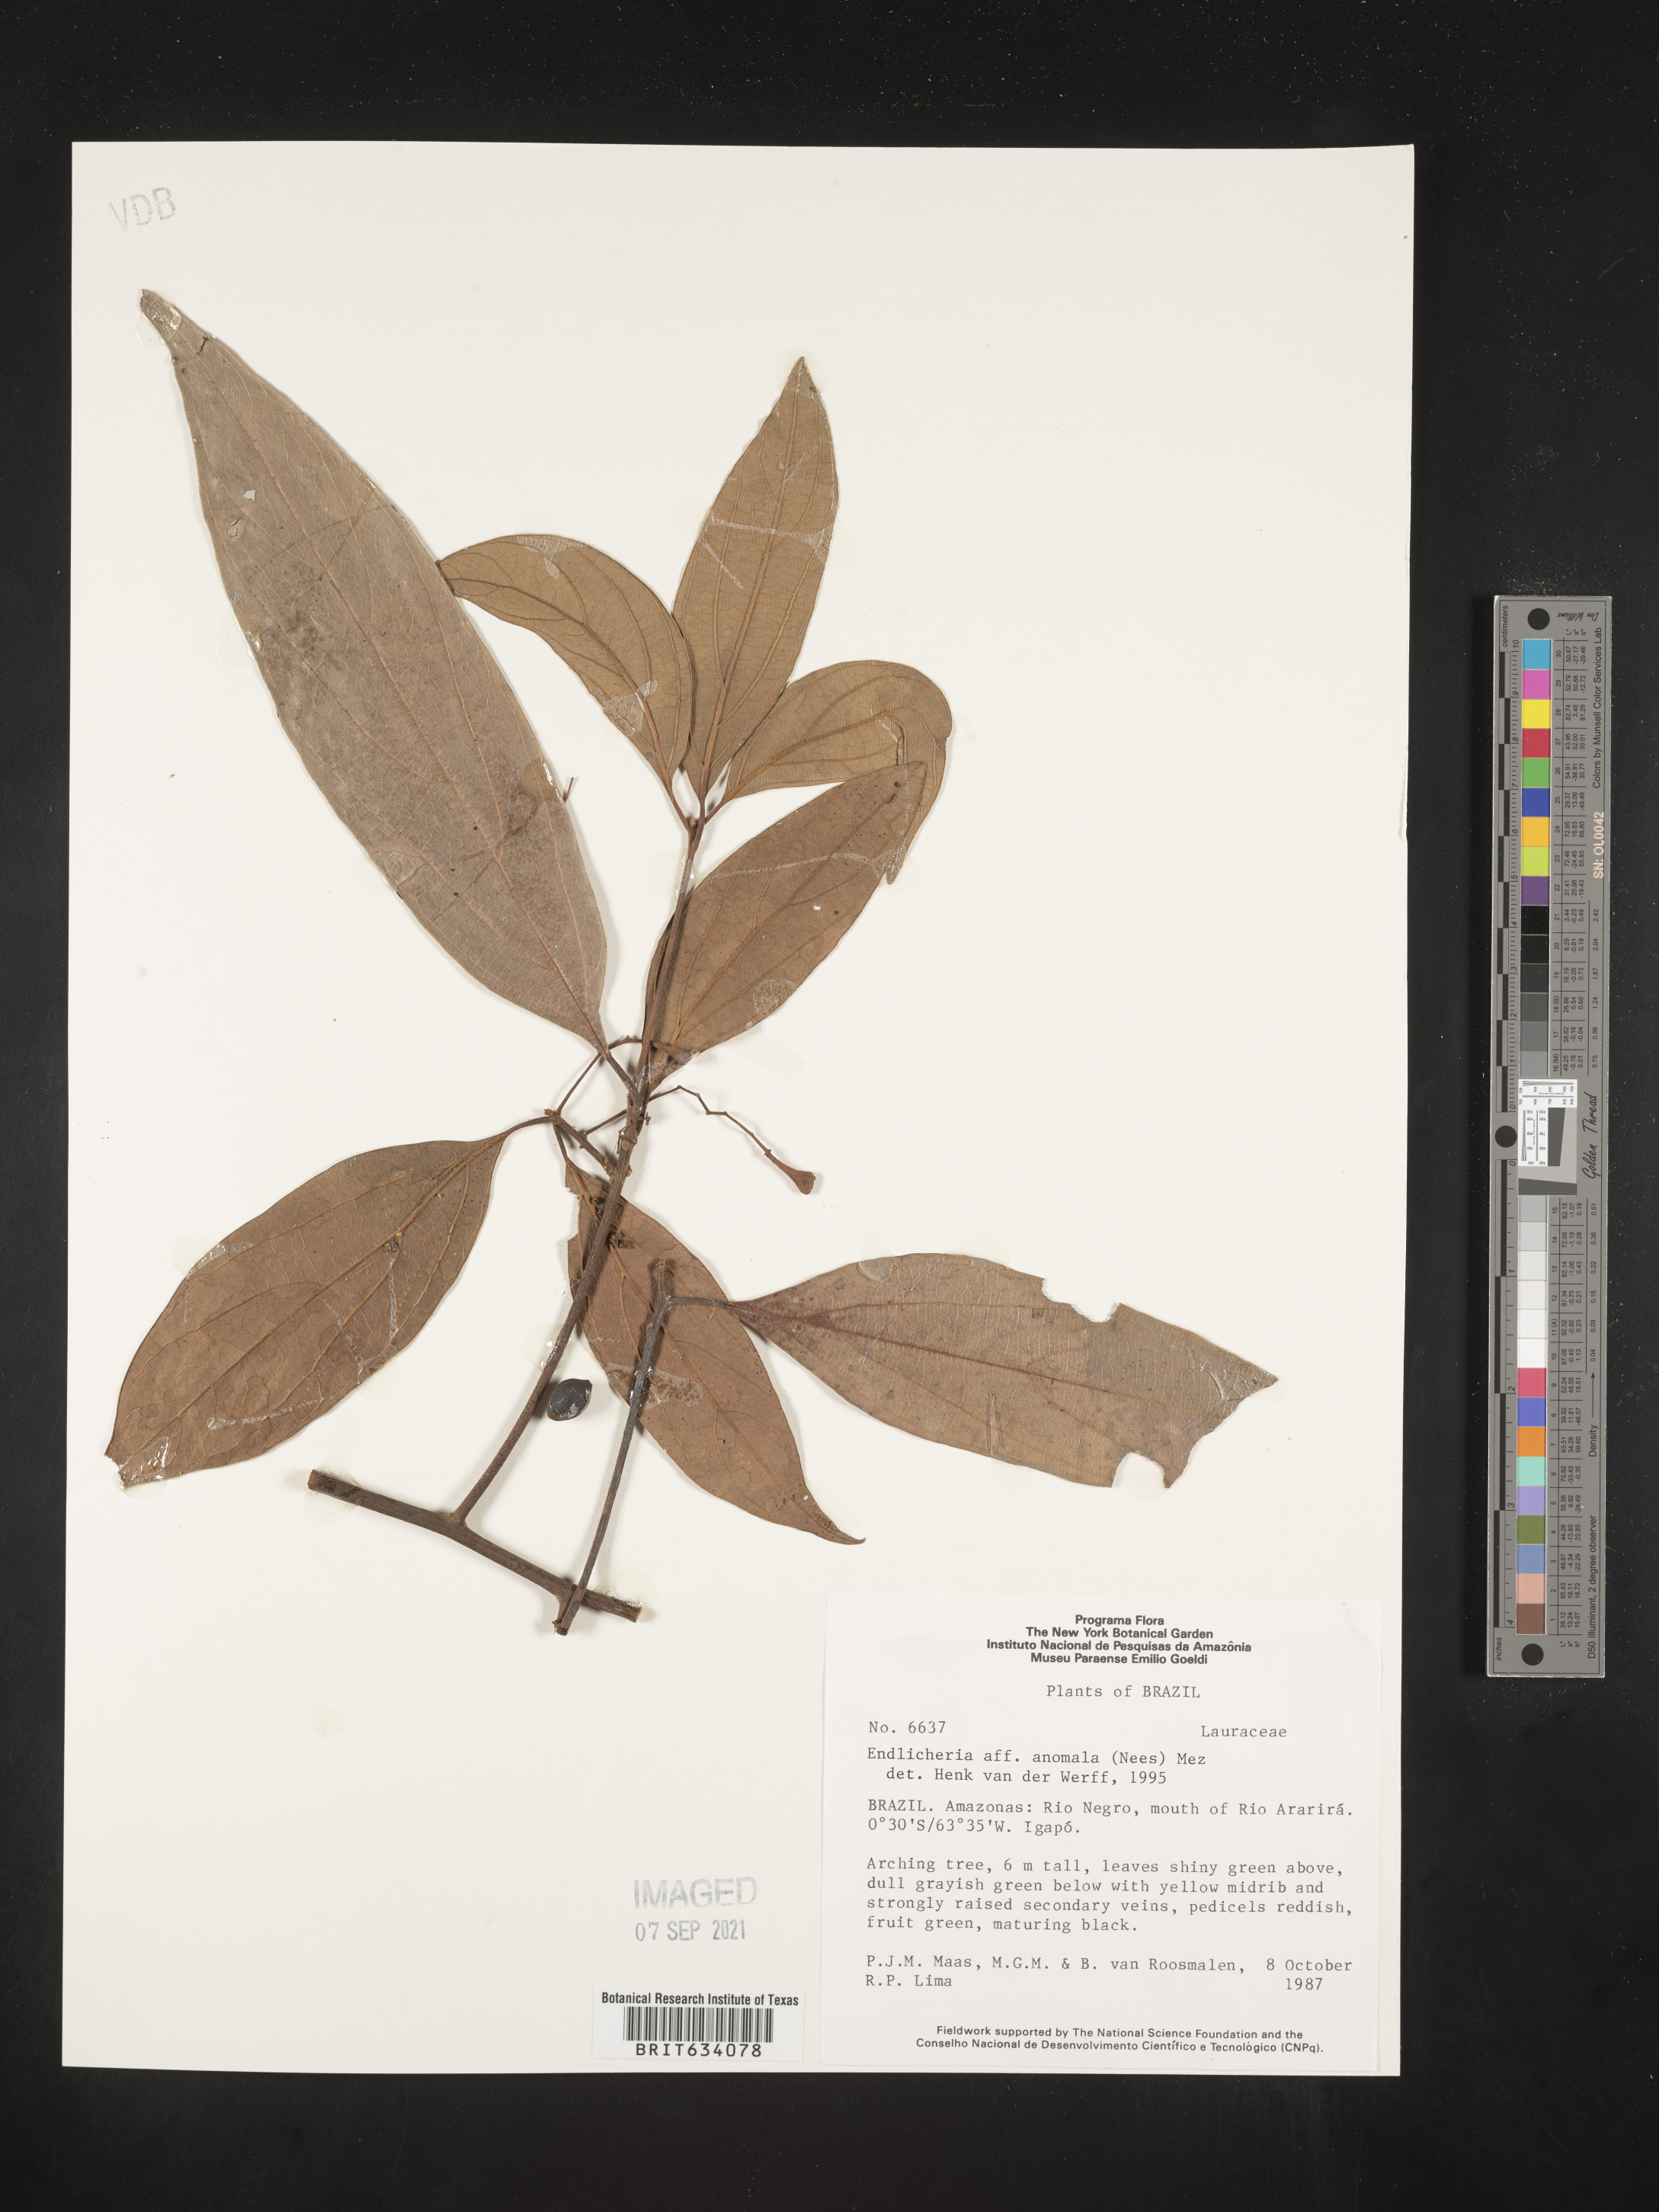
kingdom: Plantae
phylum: Tracheophyta
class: Magnoliopsida
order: Laurales
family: Lauraceae
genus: Endlicheria
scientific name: Endlicheria
